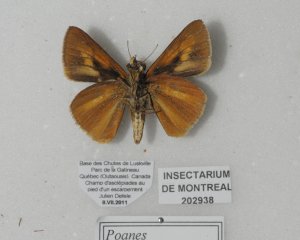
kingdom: Animalia
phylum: Arthropoda
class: Insecta
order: Lepidoptera
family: Hesperiidae
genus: Euphyes
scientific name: Euphyes dion
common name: Dion Skipper
